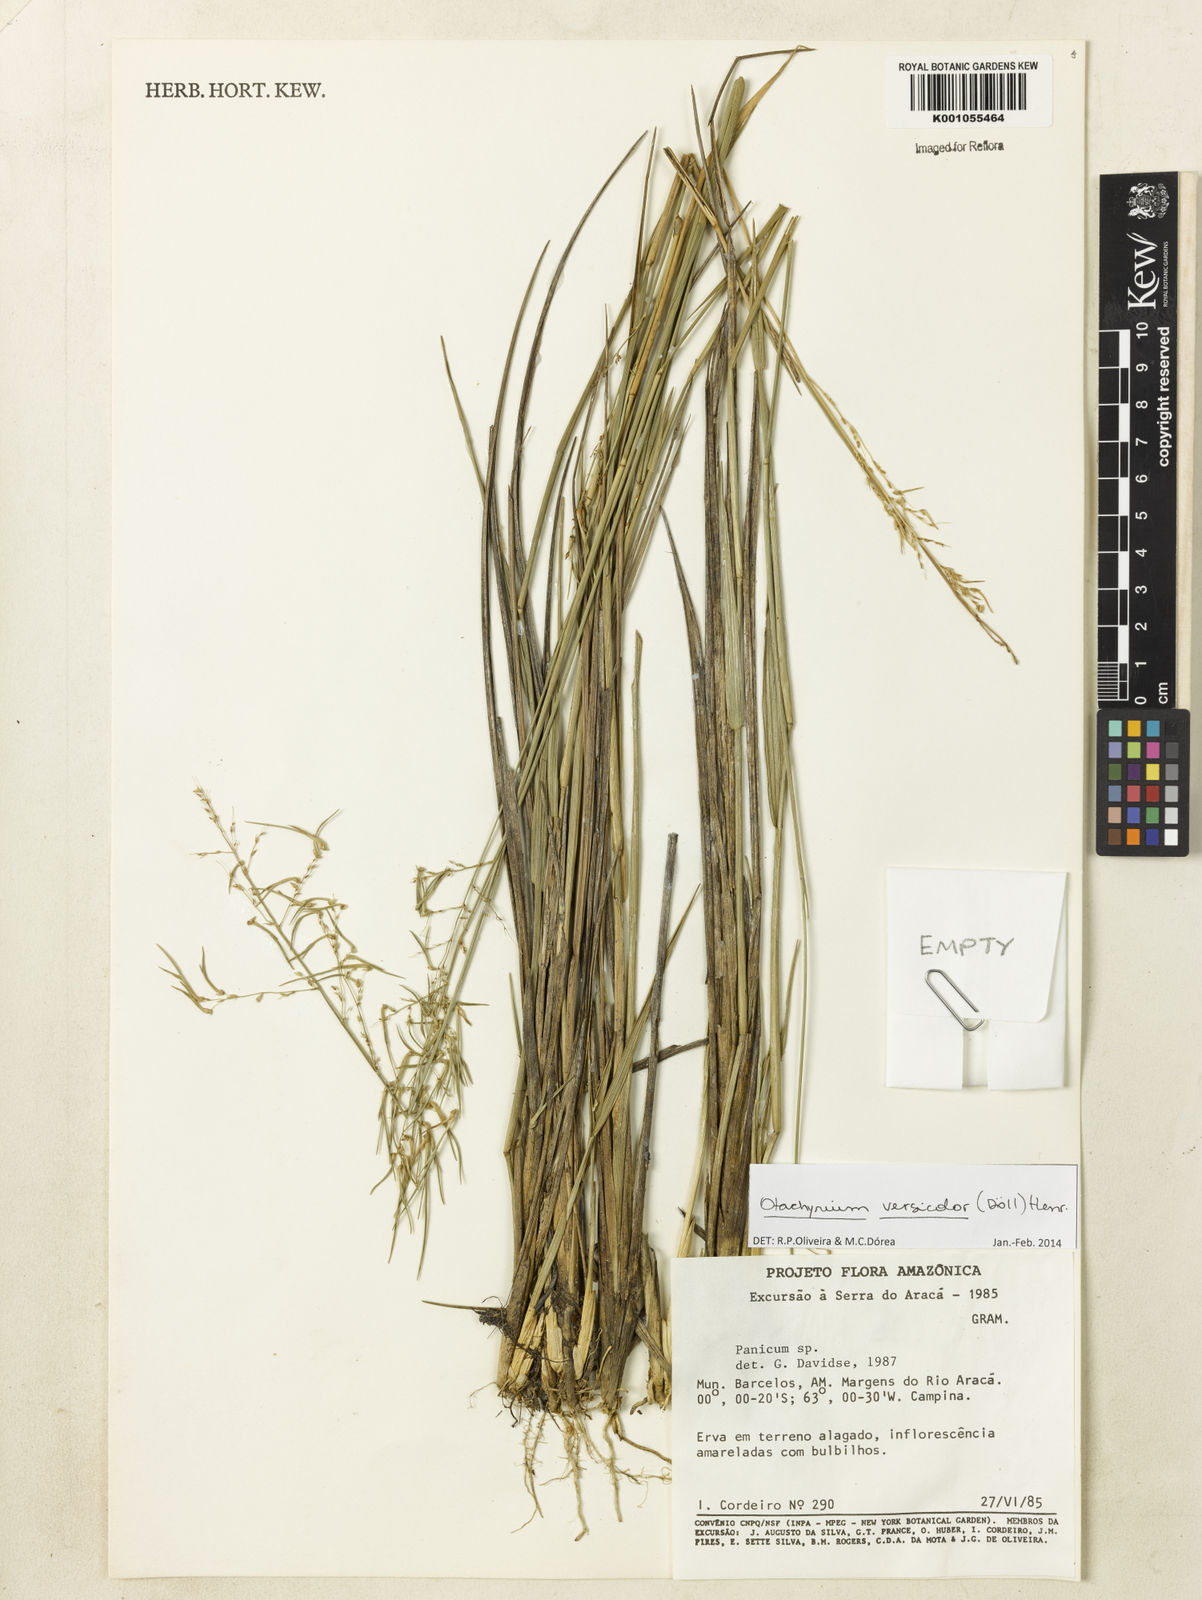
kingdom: Plantae
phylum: Tracheophyta
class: Liliopsida
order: Poales
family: Poaceae
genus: Otachyrium
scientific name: Otachyrium
